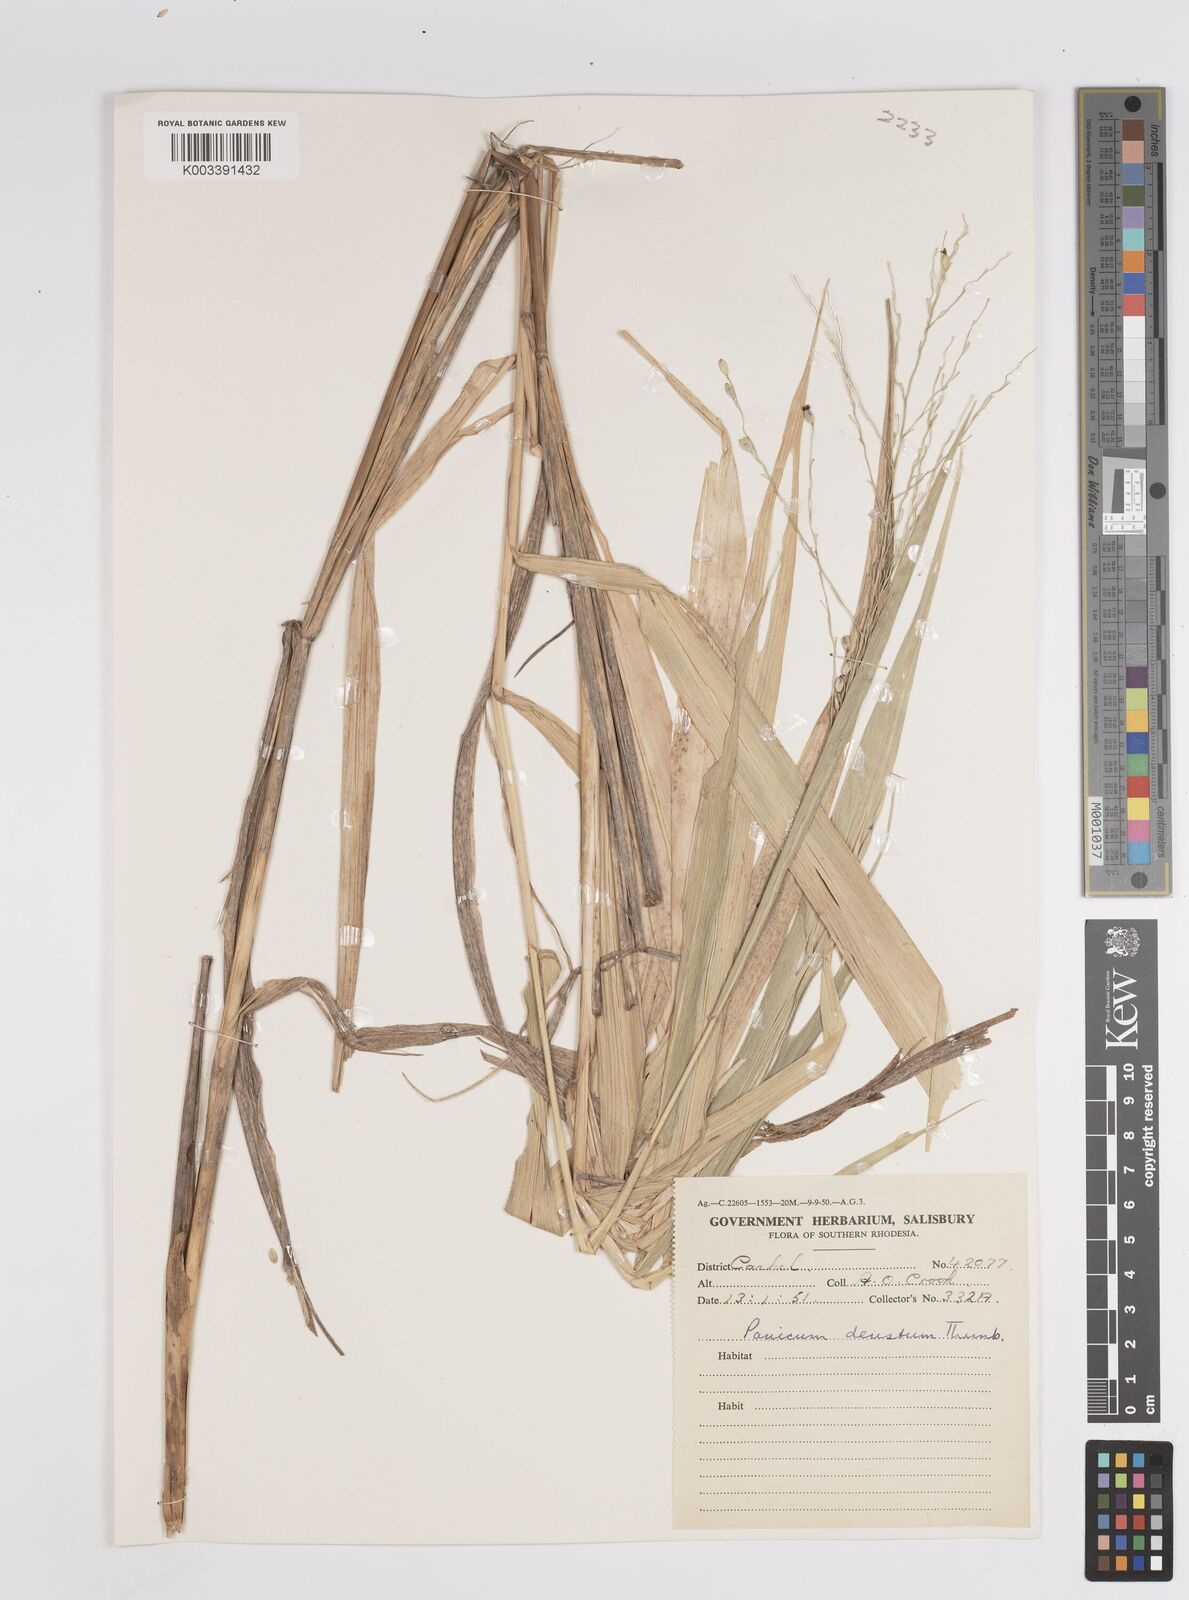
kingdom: Plantae
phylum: Tracheophyta
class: Liliopsida
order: Poales
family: Poaceae
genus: Panicum
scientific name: Panicum deustum
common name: Reed panicum
